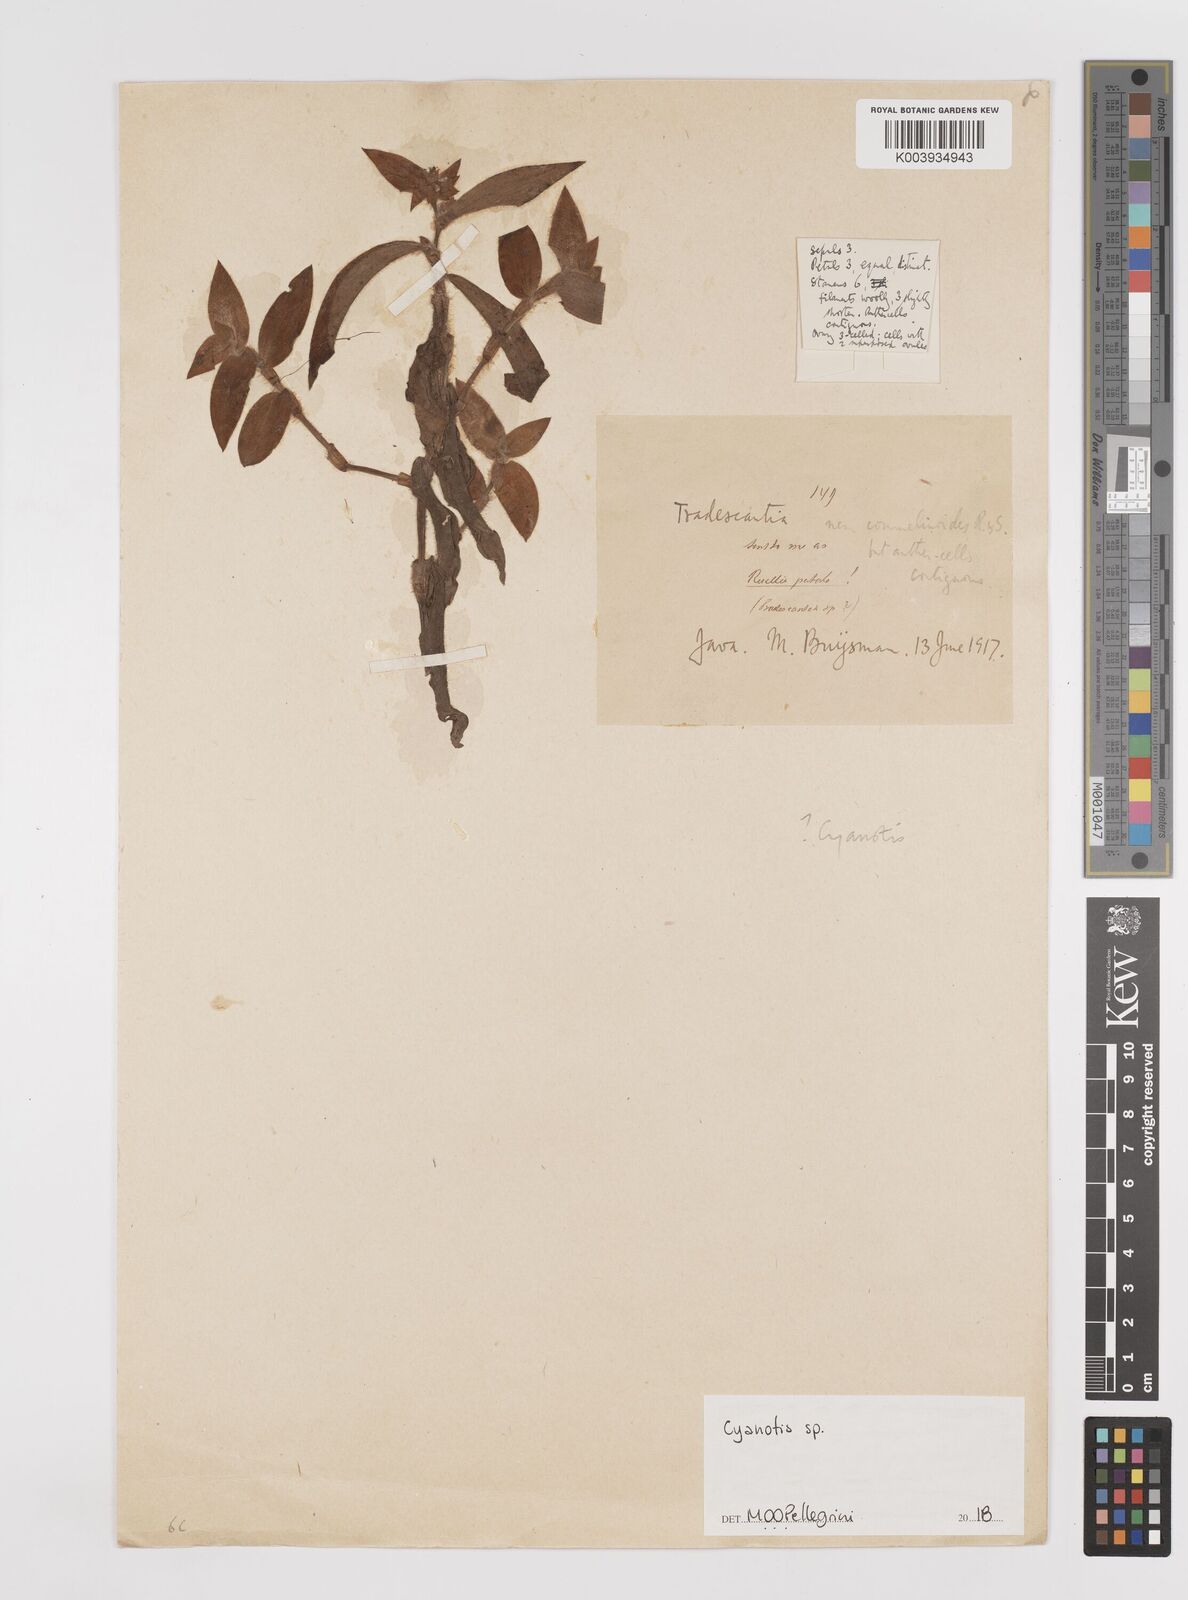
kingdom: Plantae
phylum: Tracheophyta
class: Liliopsida
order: Commelinales
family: Commelinaceae
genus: Cyanotis
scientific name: Cyanotis
